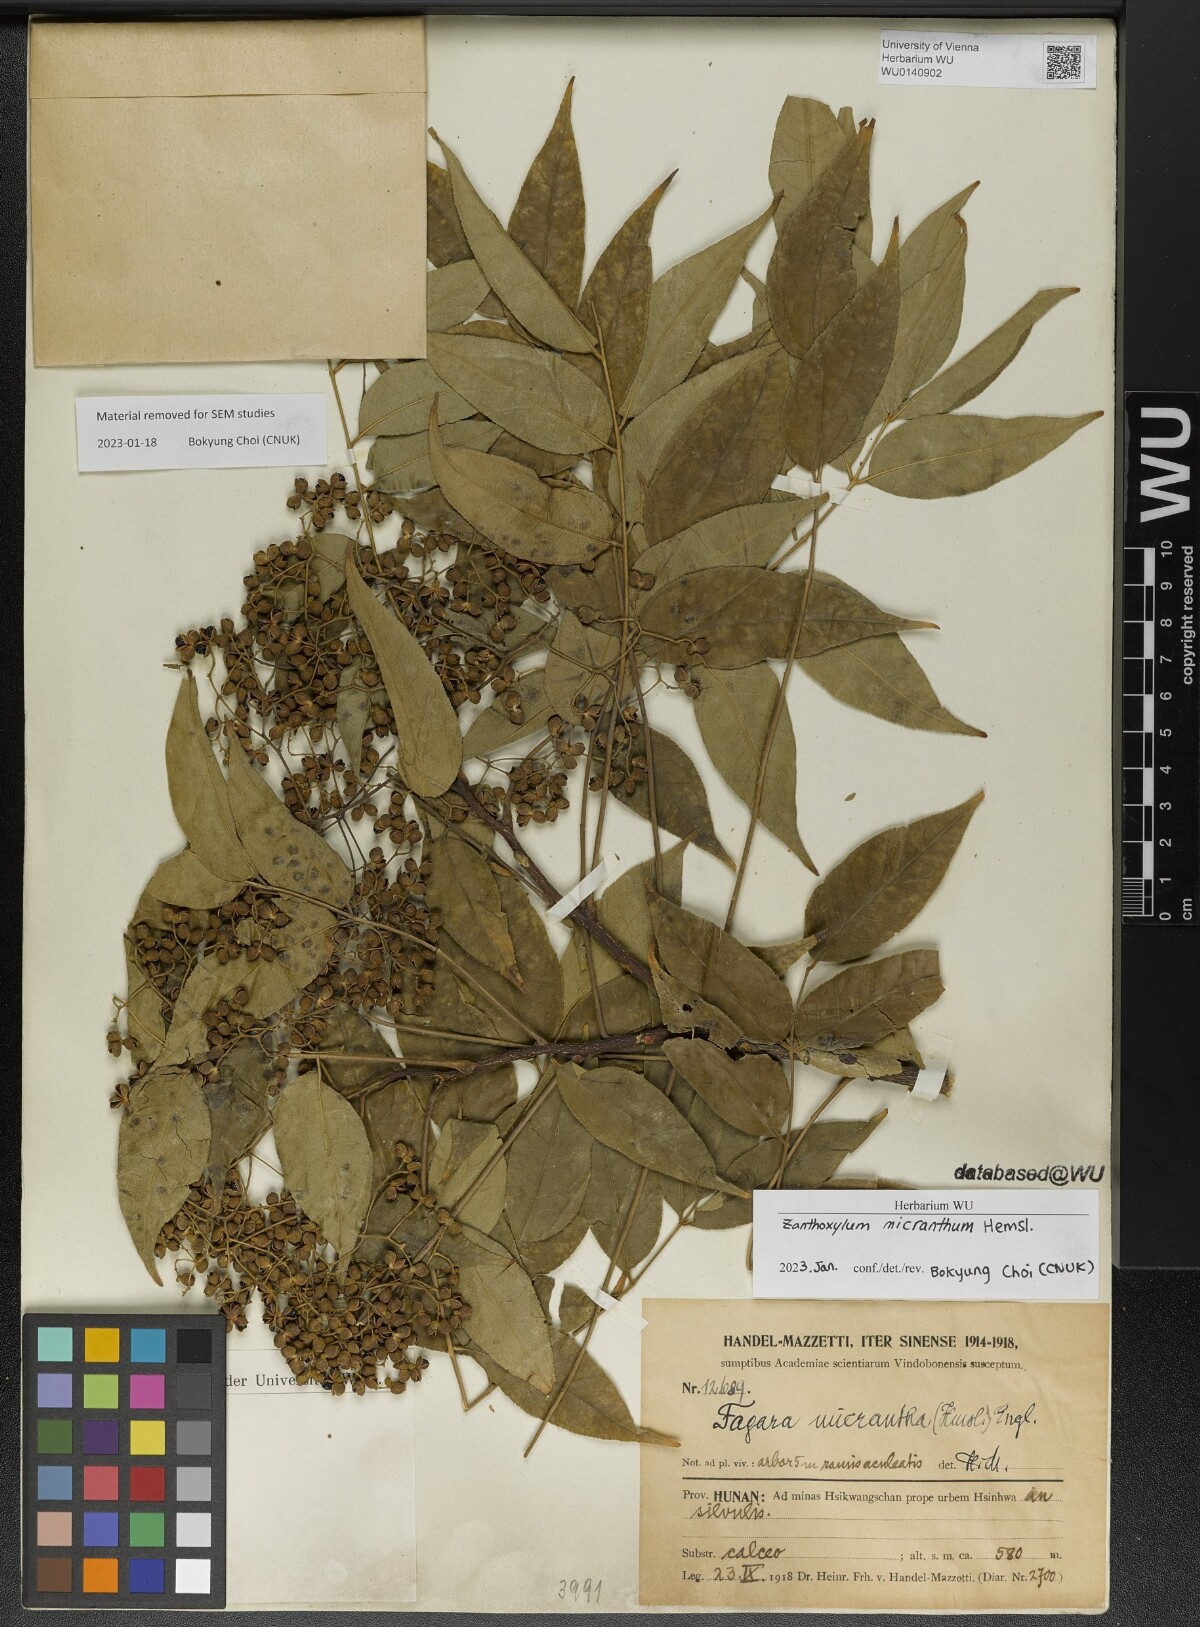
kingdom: Plantae
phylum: Tracheophyta
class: Magnoliopsida
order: Sapindales
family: Rutaceae
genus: Zanthoxylum
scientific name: Zanthoxylum micranthum
